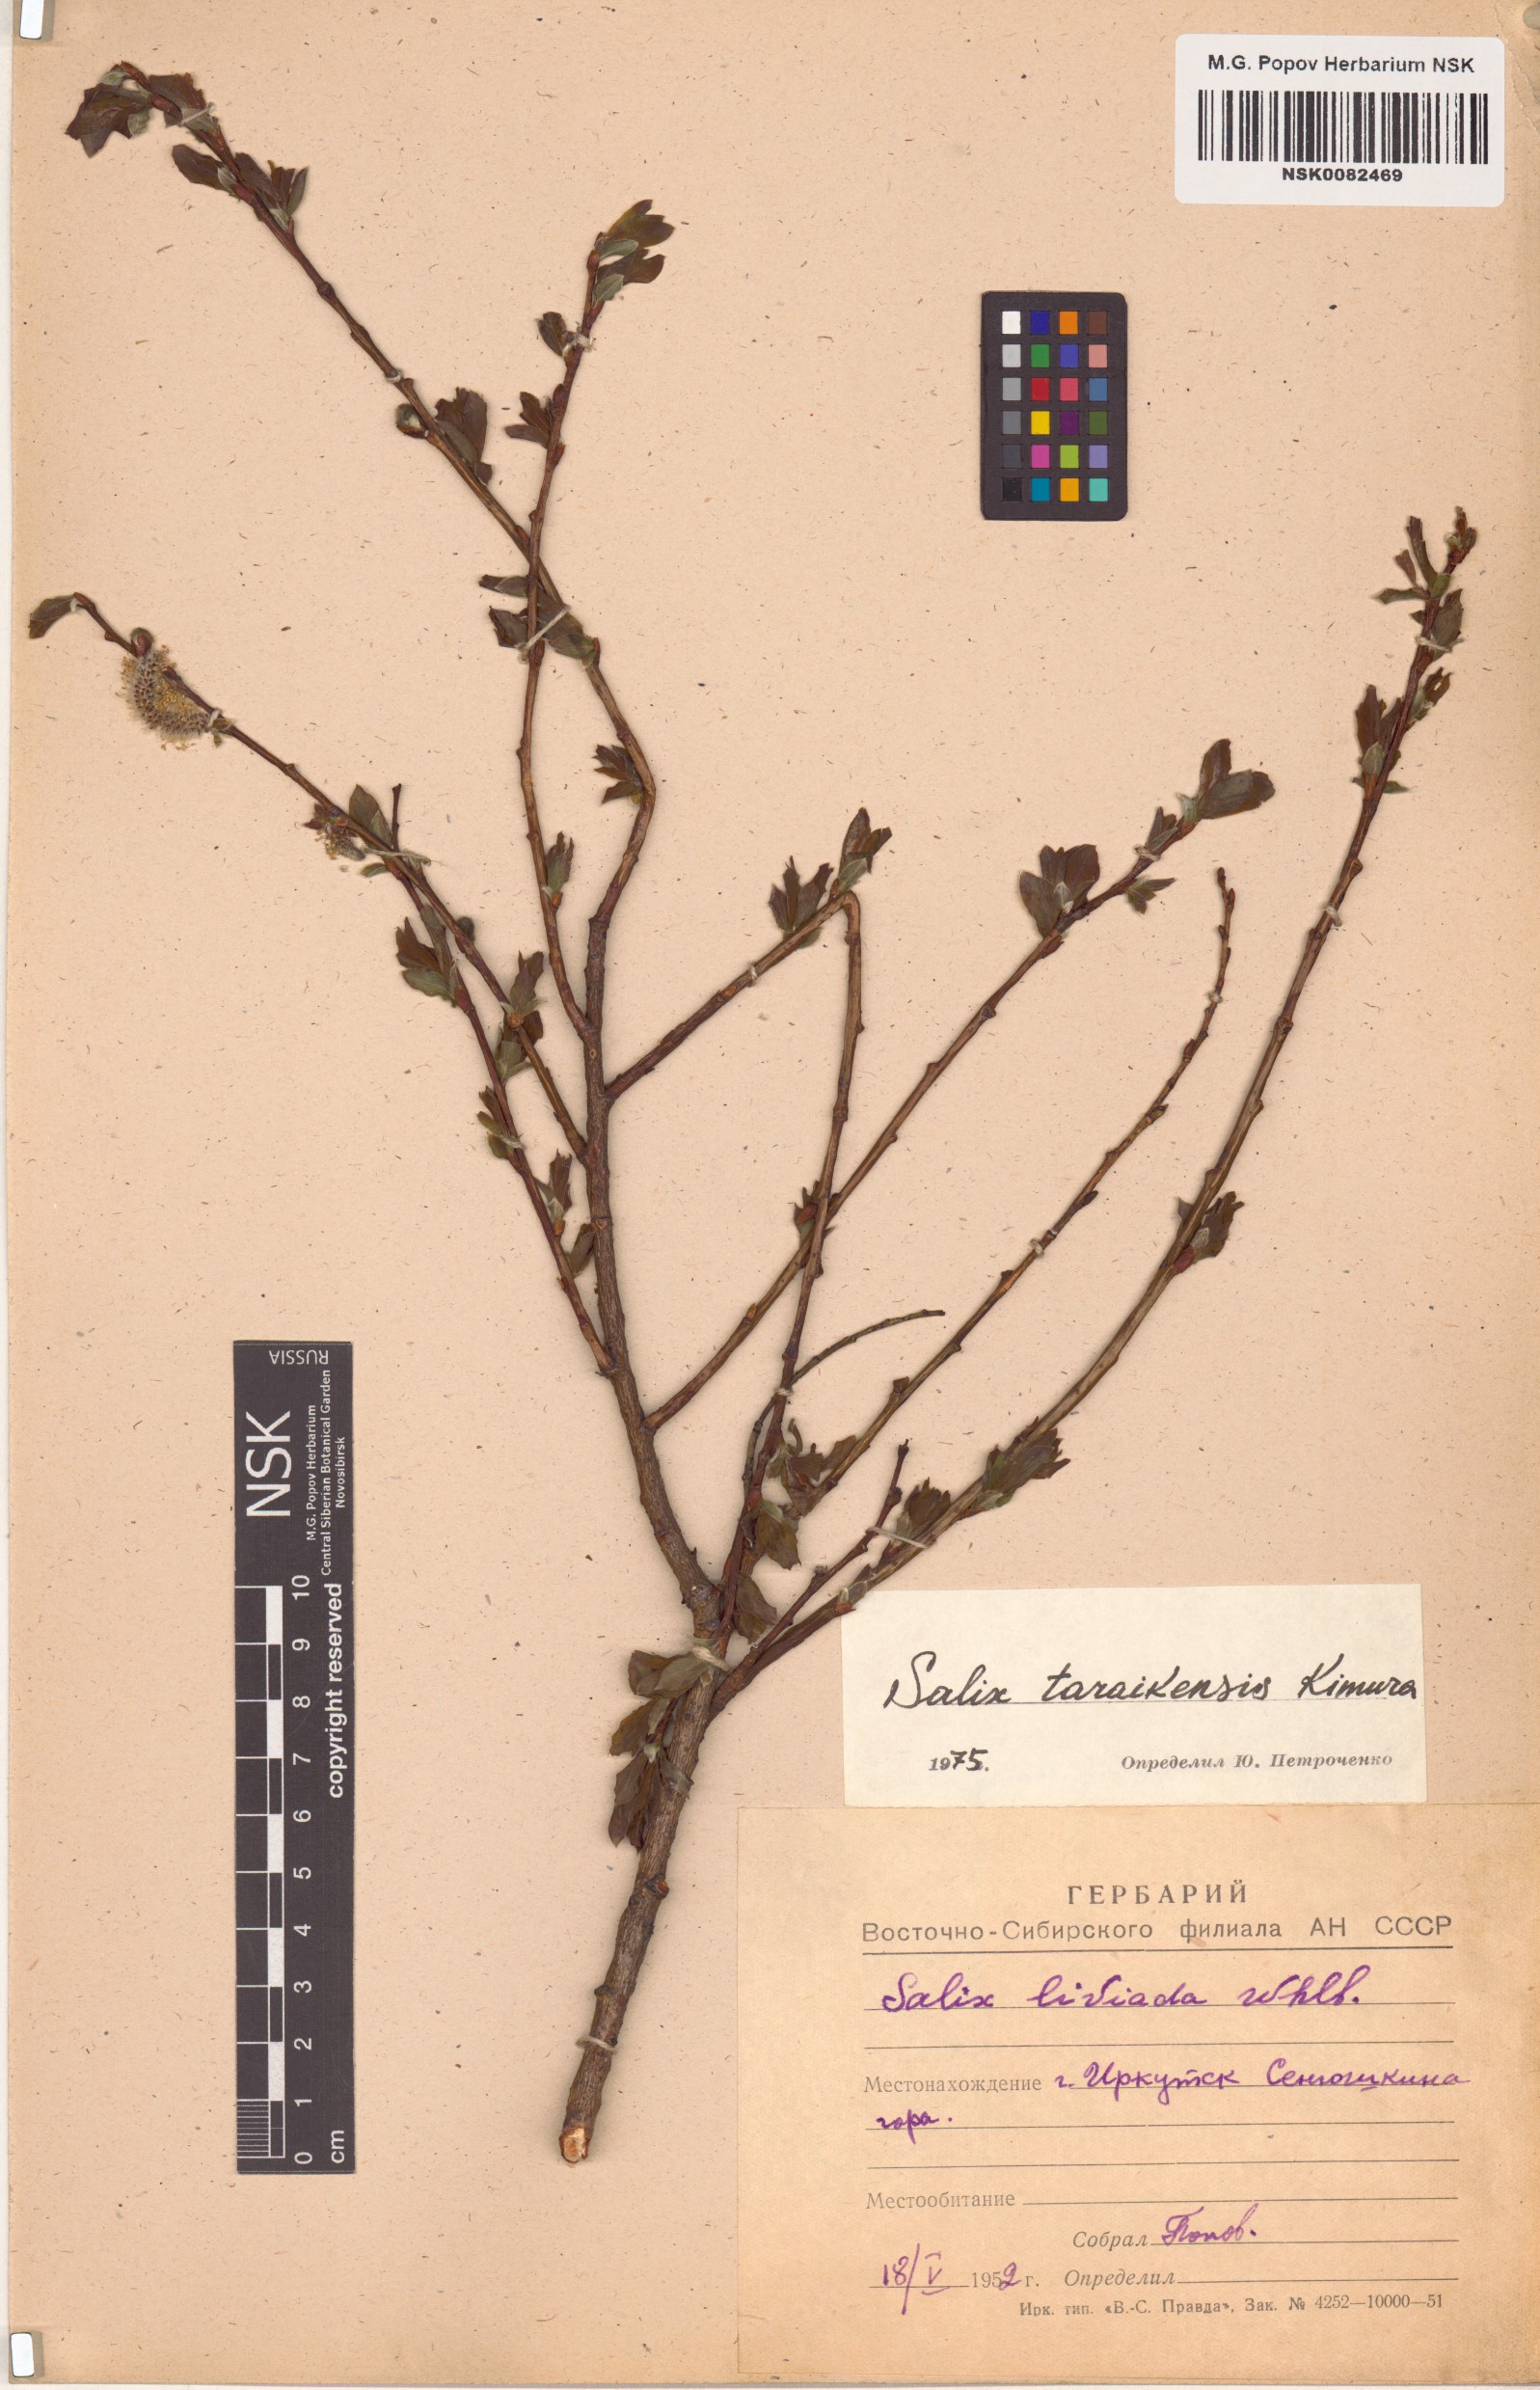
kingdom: Plantae
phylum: Tracheophyta
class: Magnoliopsida
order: Malpighiales
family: Salicaceae
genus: Salix
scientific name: Salix taraikensis
